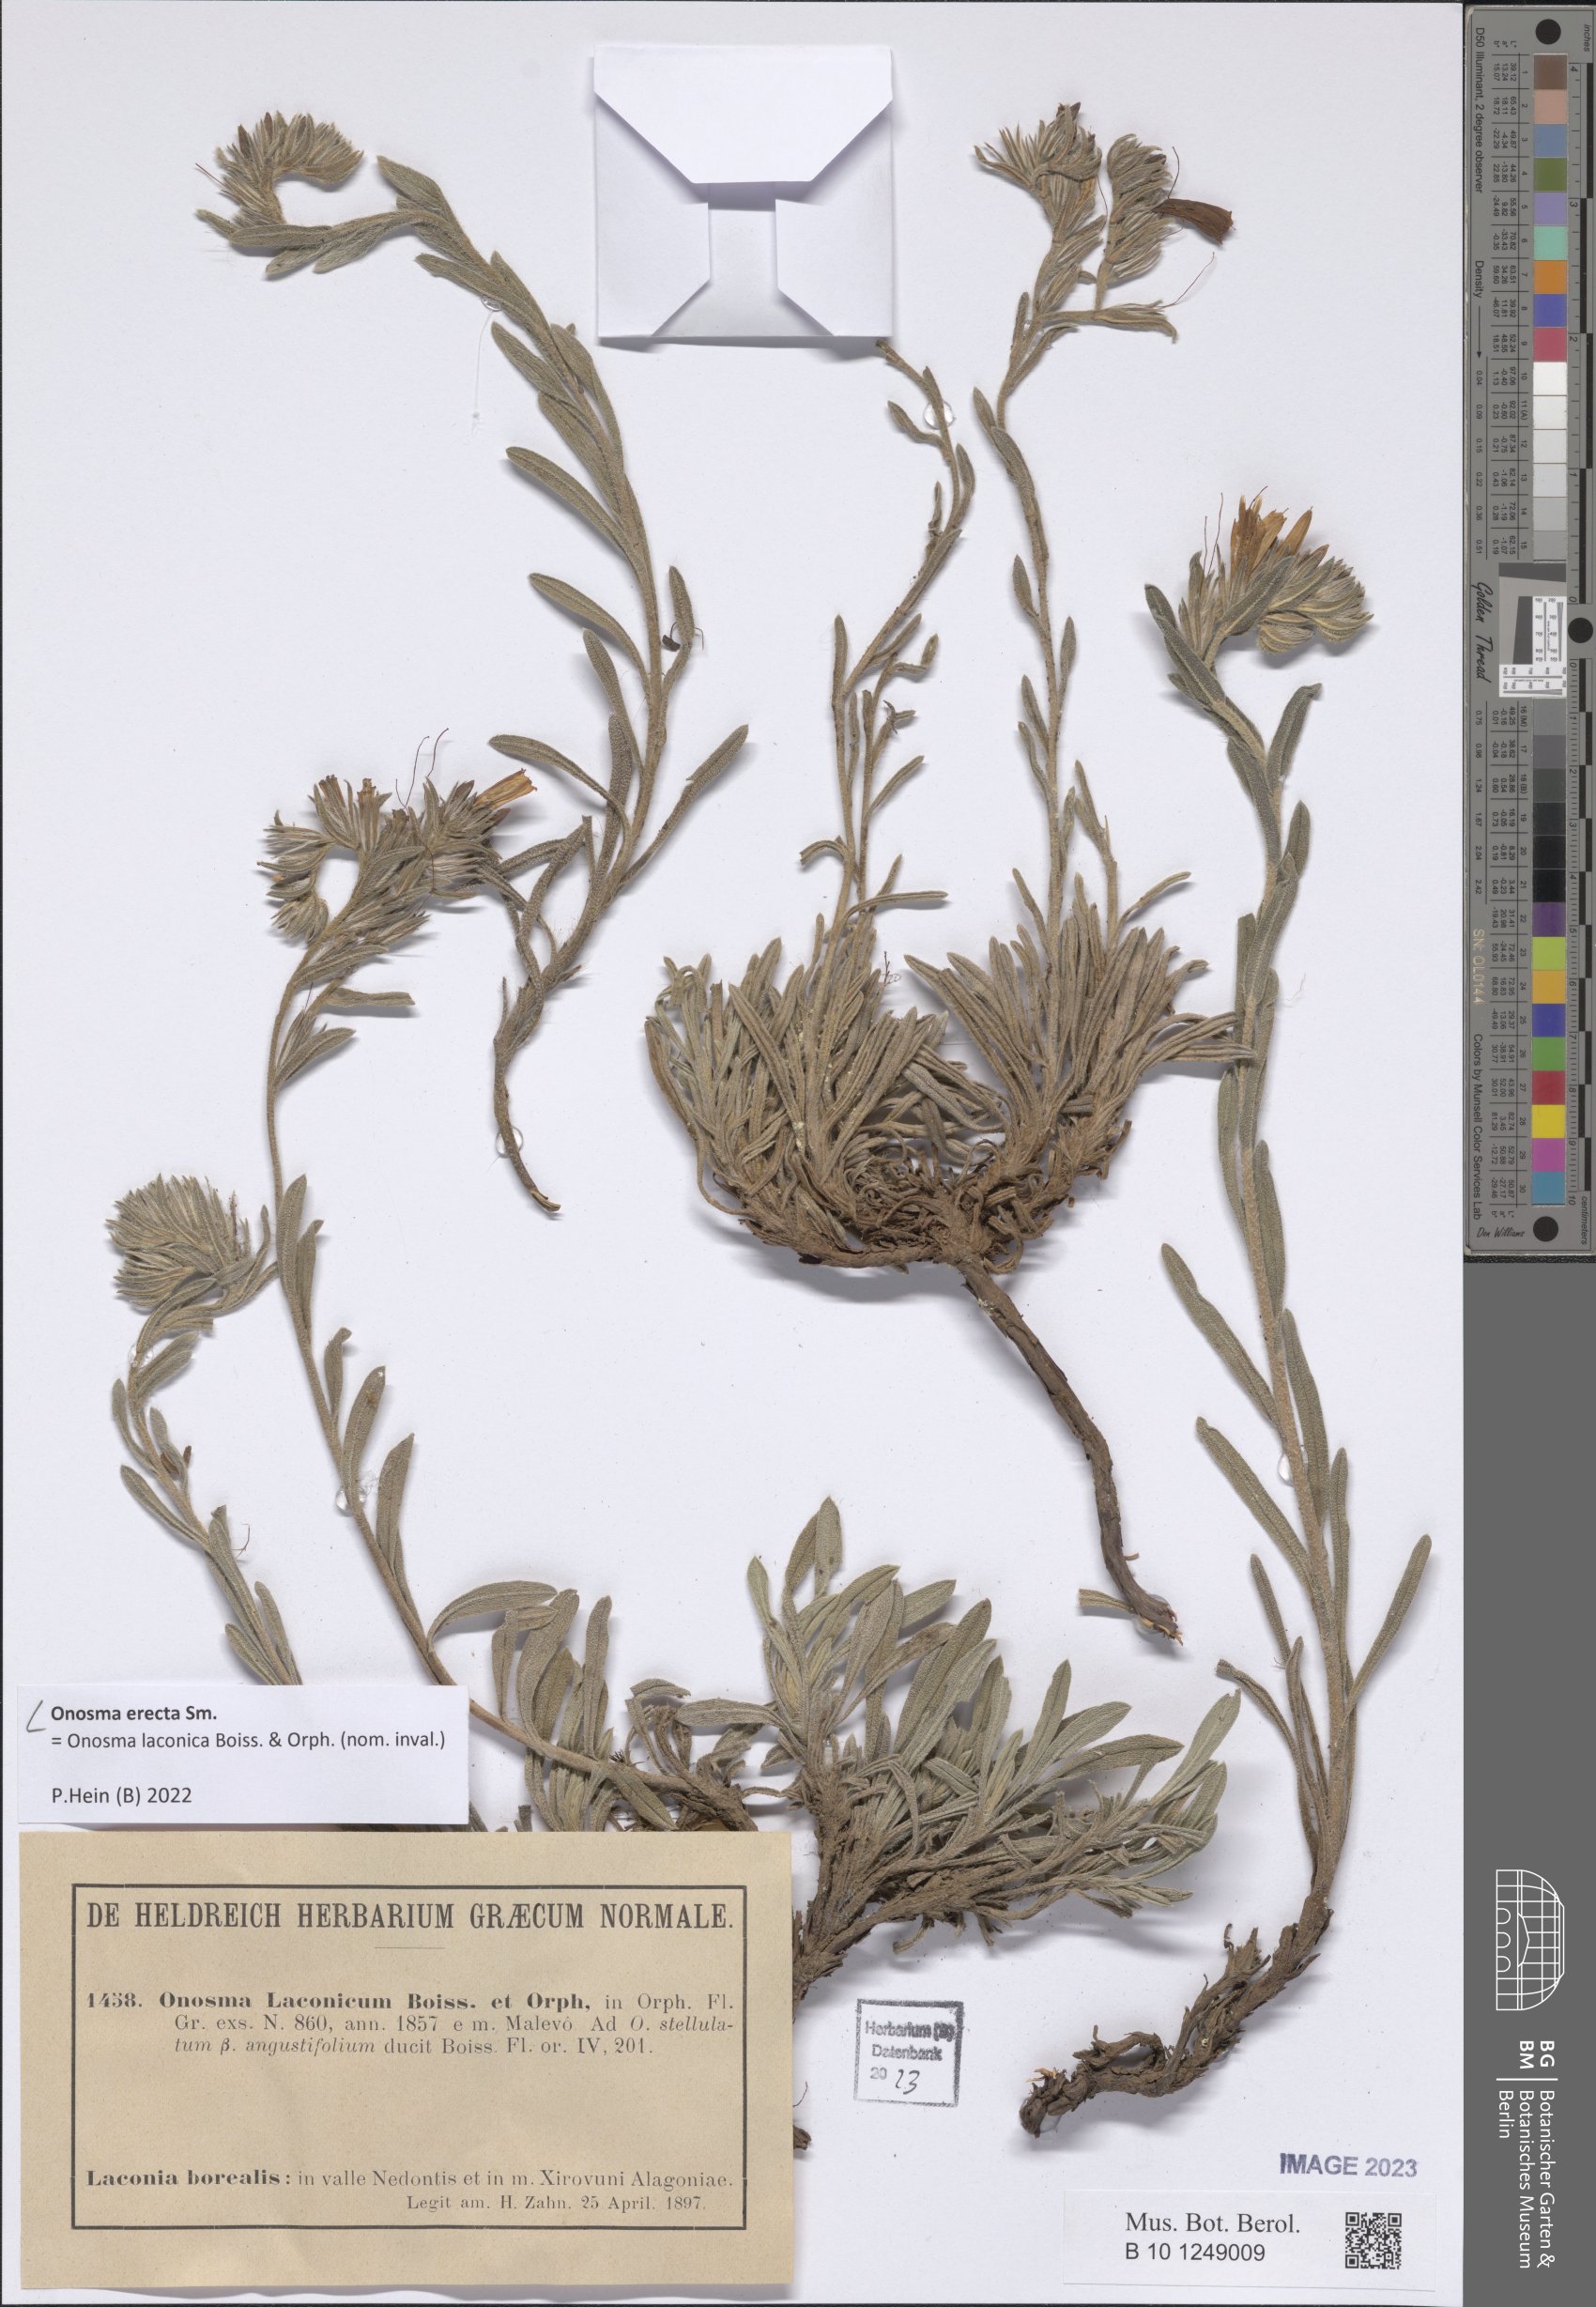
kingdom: Plantae
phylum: Tracheophyta
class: Magnoliopsida
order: Boraginales
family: Boraginaceae
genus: Onosma
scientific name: Onosma erecta
